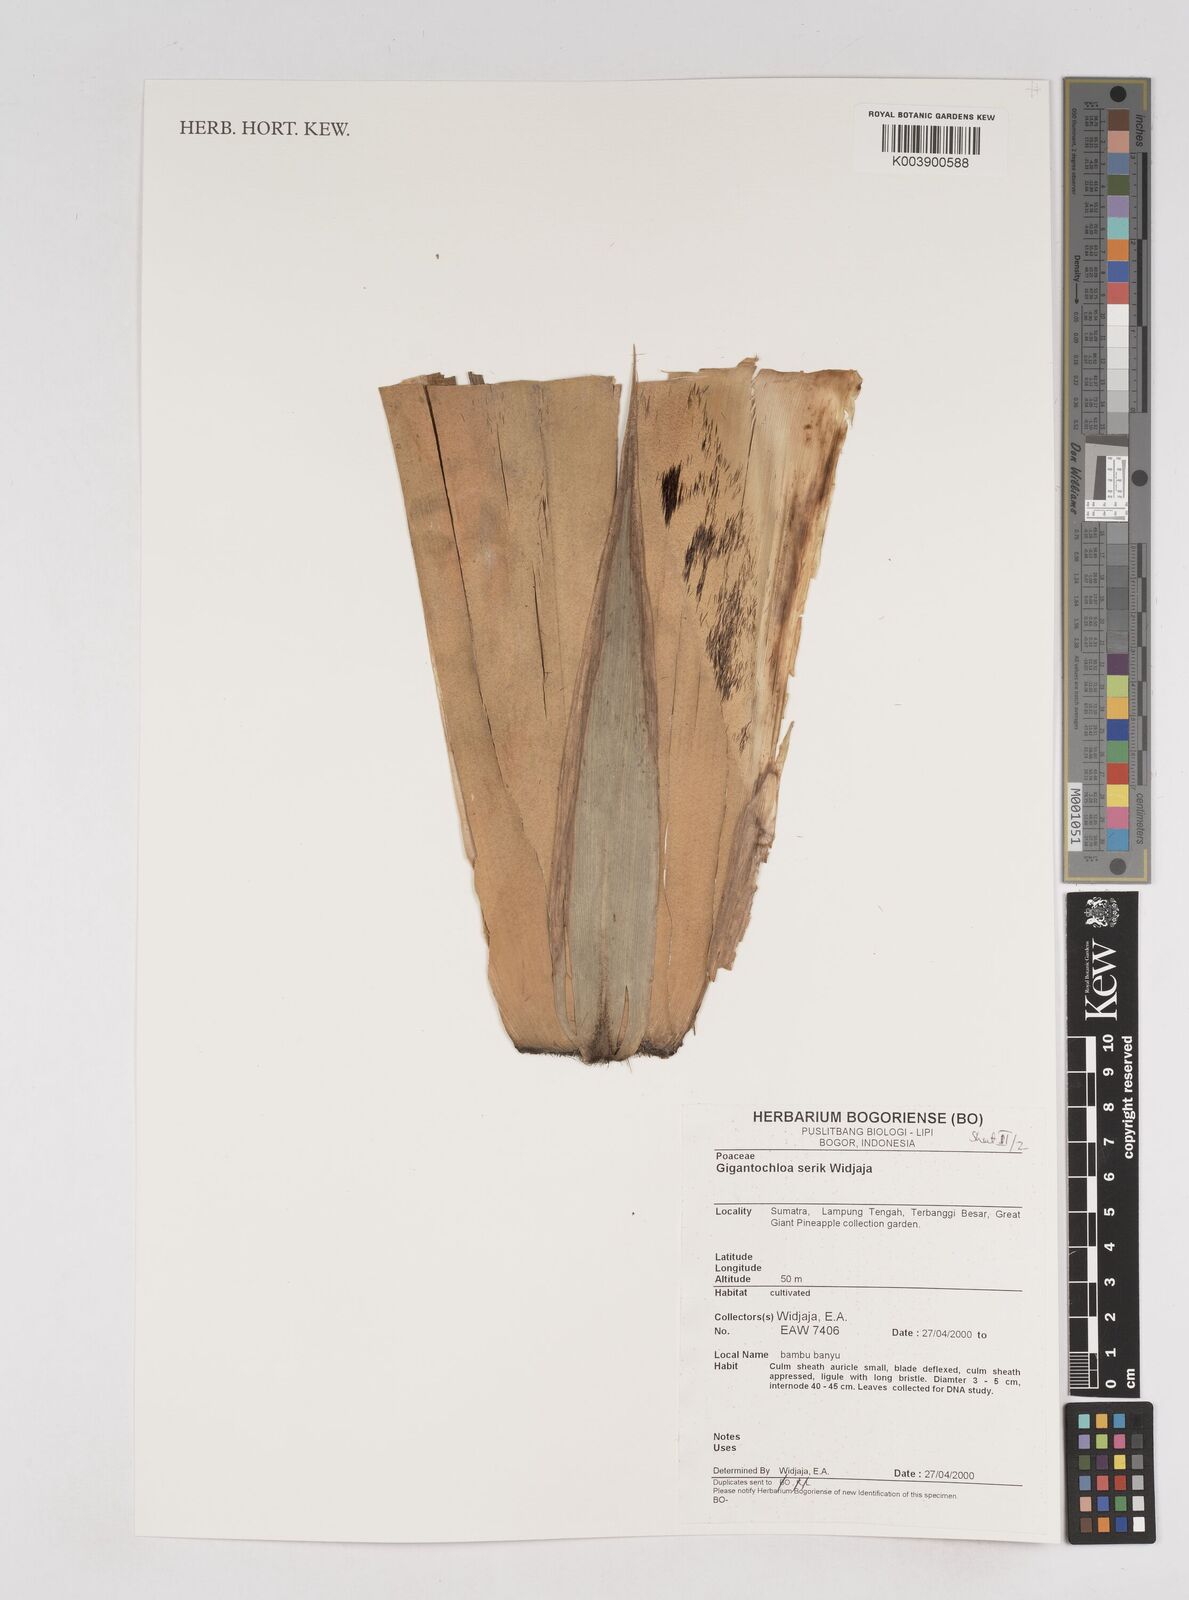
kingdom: Plantae
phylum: Tracheophyta
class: Liliopsida
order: Poales
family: Poaceae
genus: Gigantochloa
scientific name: Gigantochloa serik
